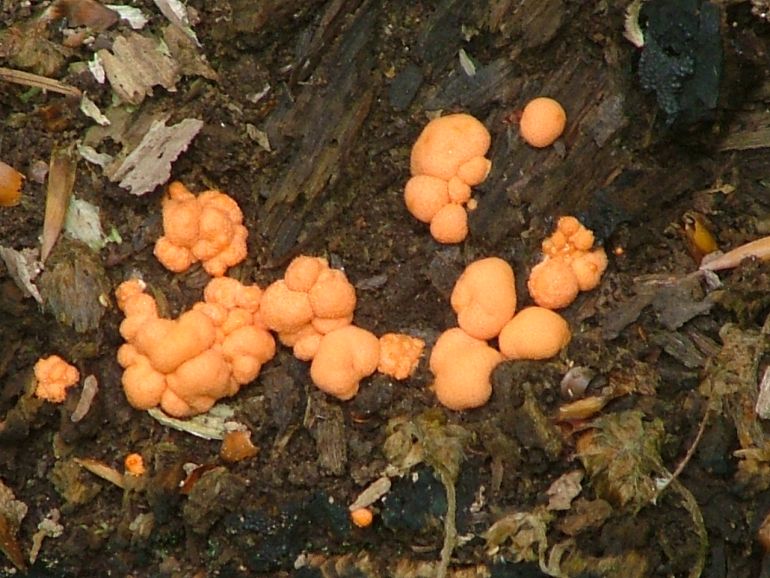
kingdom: Protozoa
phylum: Mycetozoa
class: Myxomycetes
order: Cribrariales
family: Tubiferaceae
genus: Lycogala
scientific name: Lycogala epidendrum
